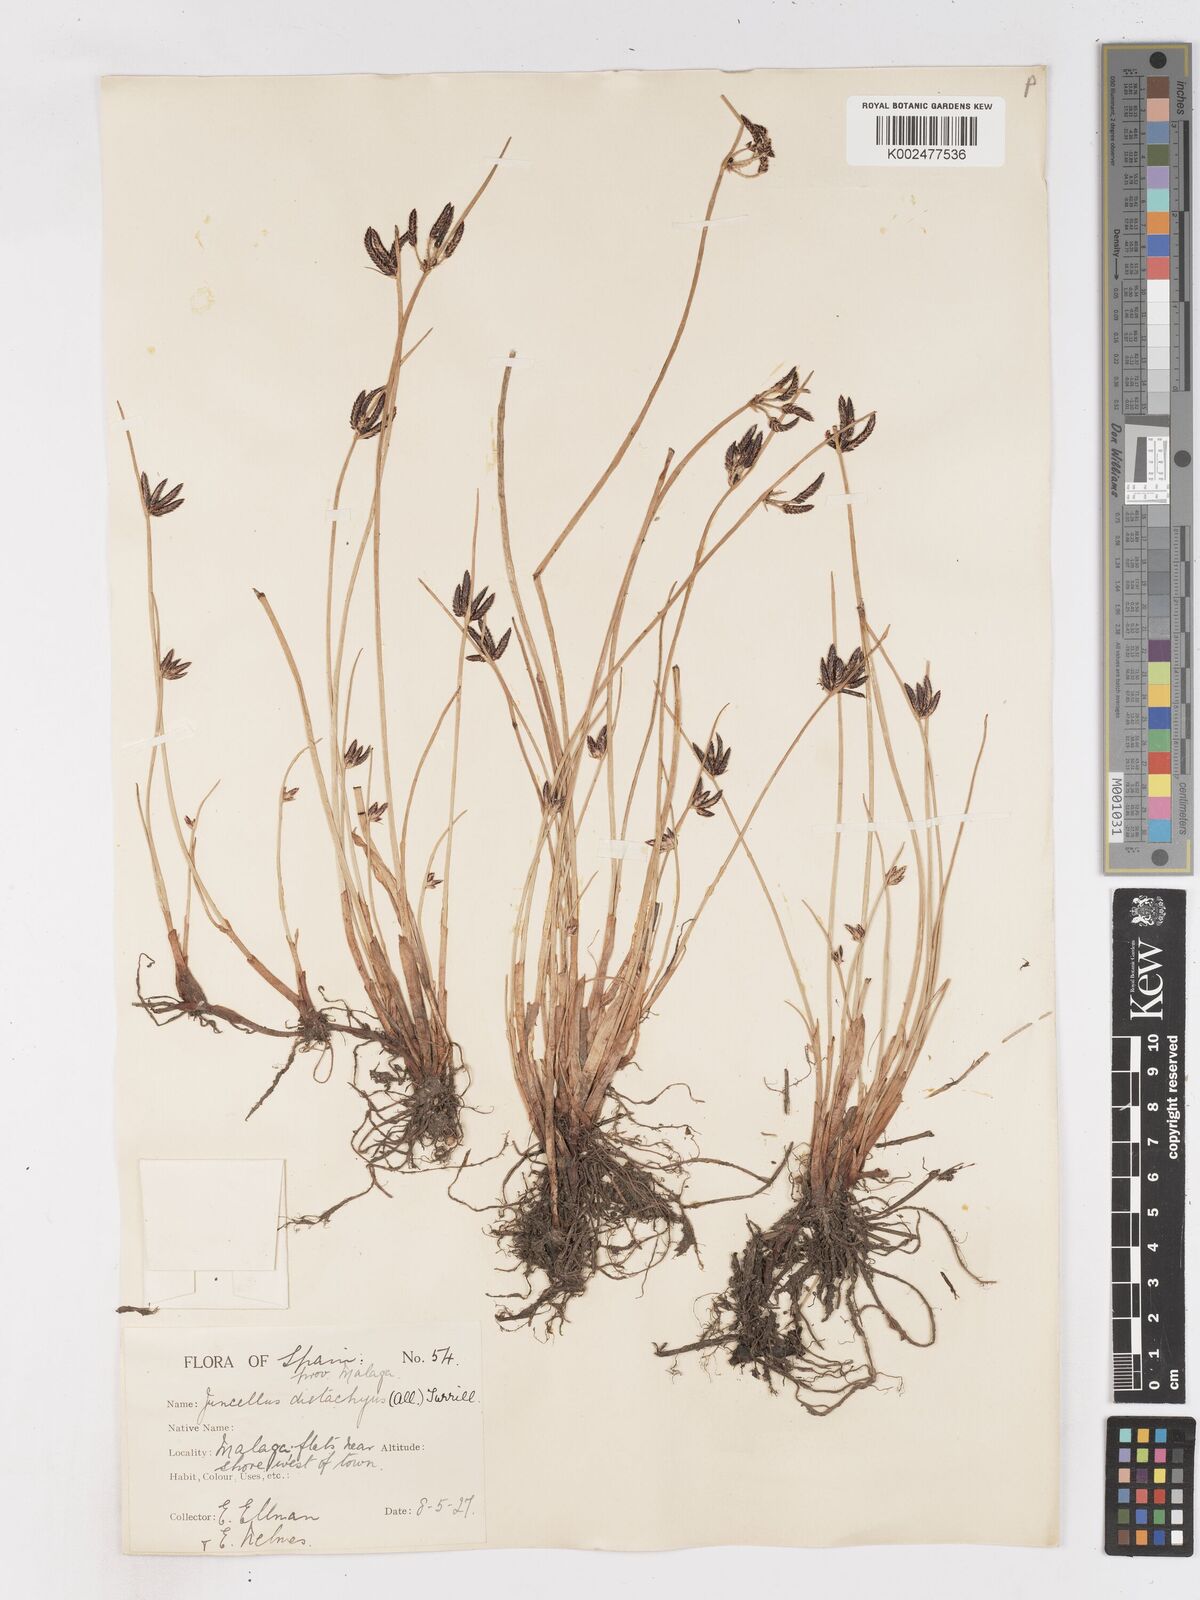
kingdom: Plantae
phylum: Tracheophyta
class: Liliopsida
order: Poales
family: Cyperaceae
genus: Cyperus
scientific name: Cyperus laevigatus
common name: Smooth flat sedge
